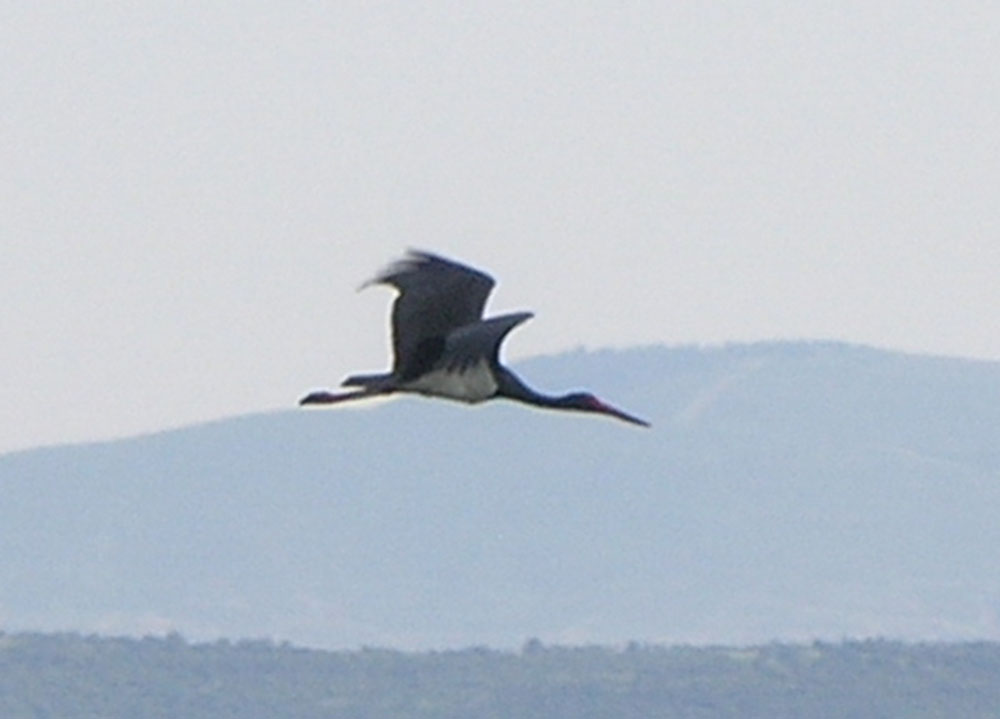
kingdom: Animalia
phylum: Chordata
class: Aves
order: Ciconiiformes
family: Ciconiidae
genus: Ciconia
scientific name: Ciconia nigra
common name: Black stork
